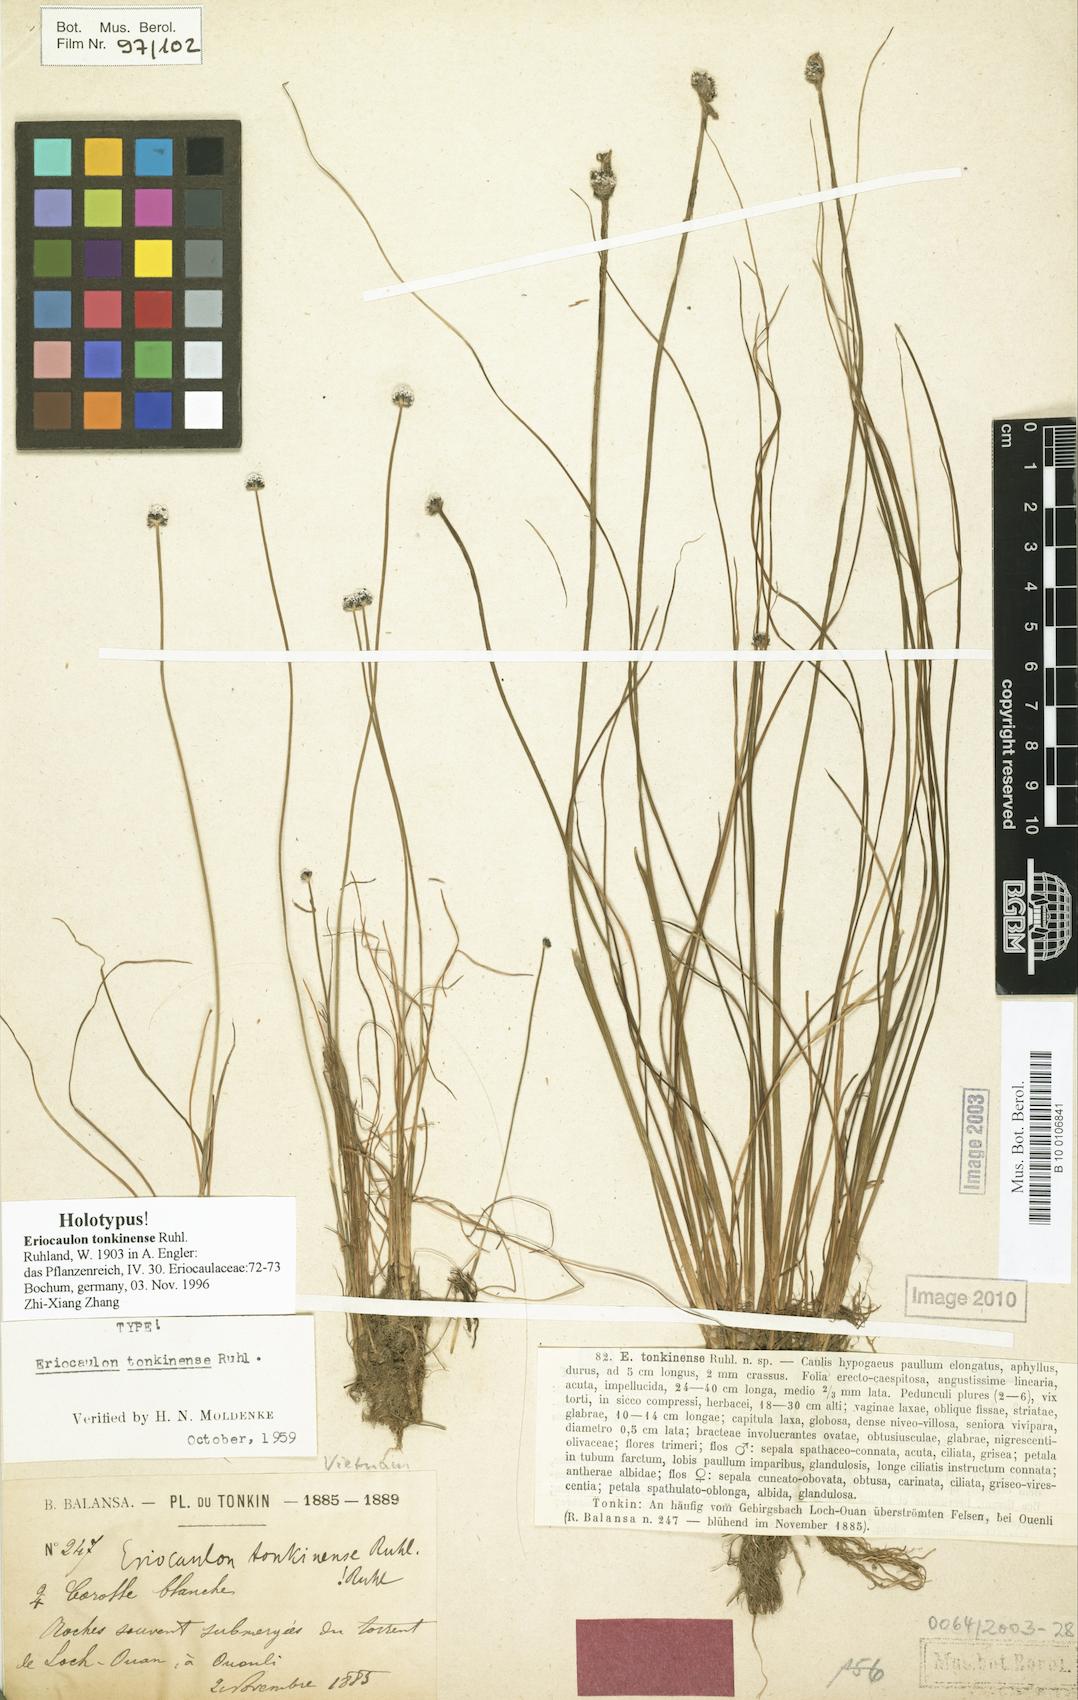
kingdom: Plantae
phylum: Tracheophyta
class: Liliopsida
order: Poales
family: Eriocaulaceae
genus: Eriocaulon
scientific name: Eriocaulon fluviatile
